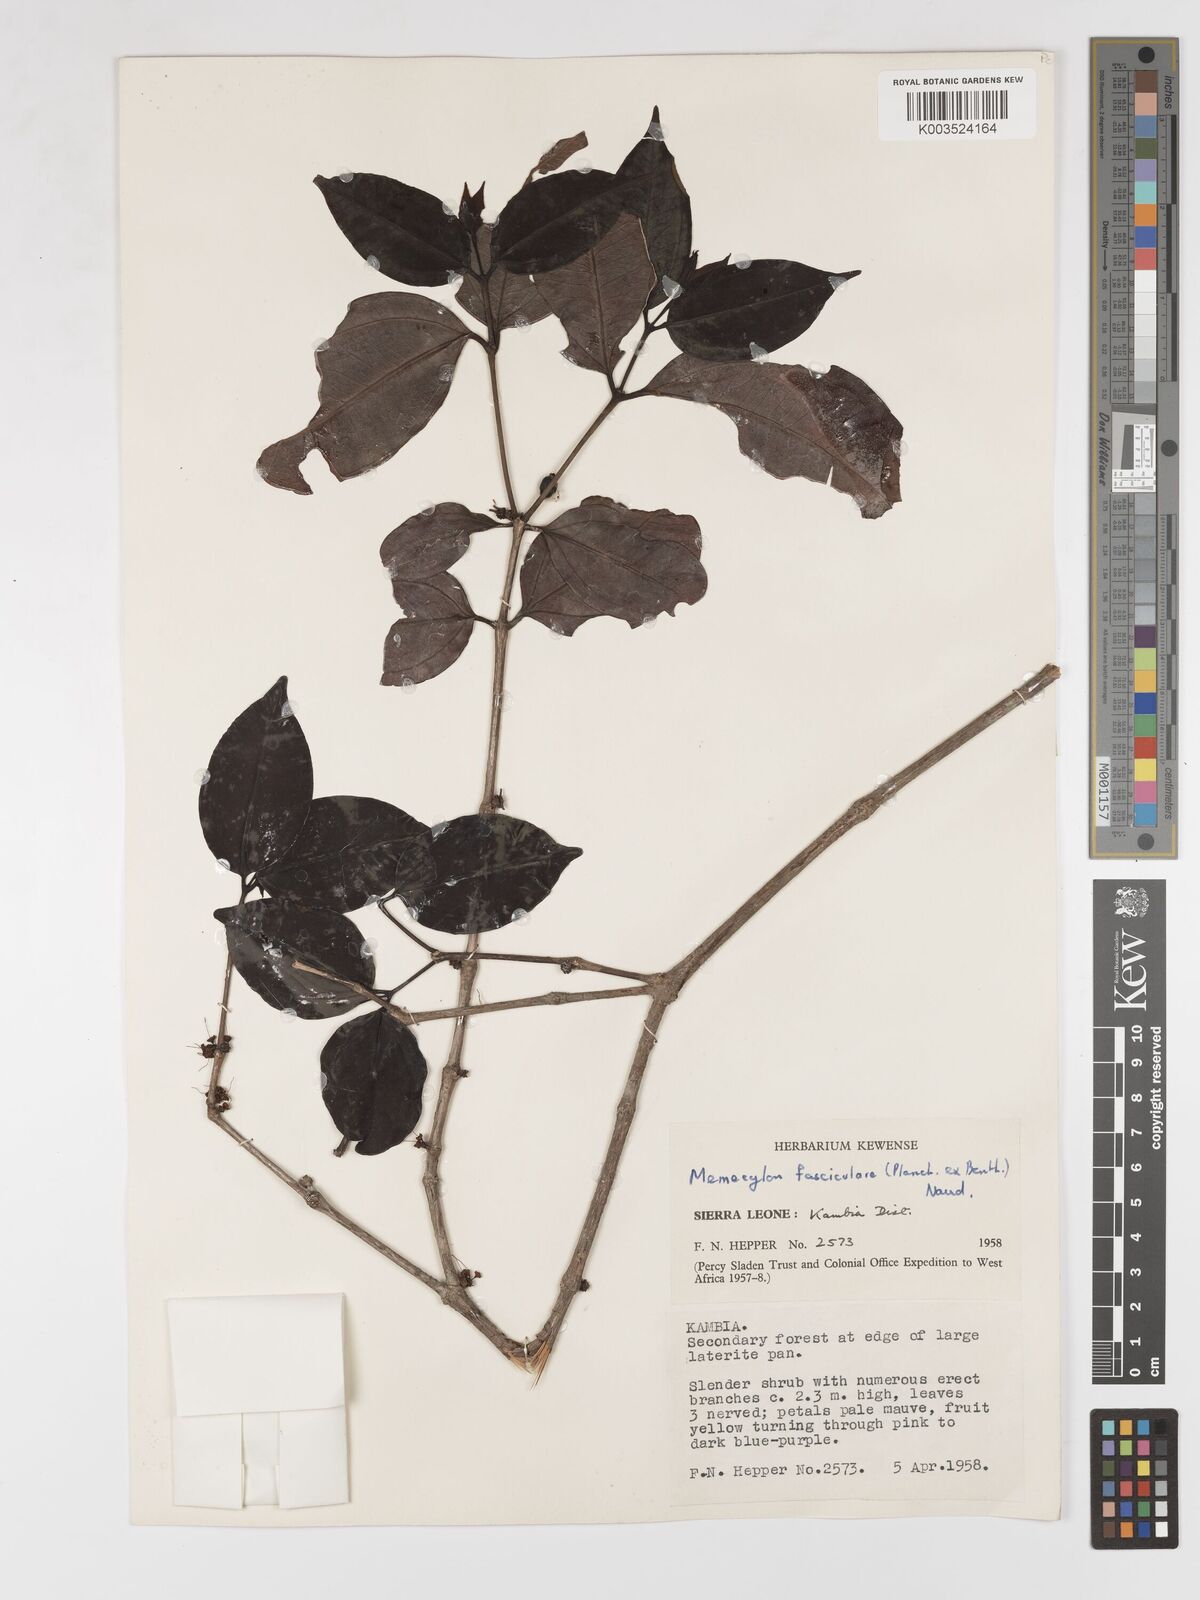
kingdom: Plantae
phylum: Tracheophyta
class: Magnoliopsida
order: Myrtales
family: Melastomataceae
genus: Warneckea
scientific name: Warneckea fascicularis
